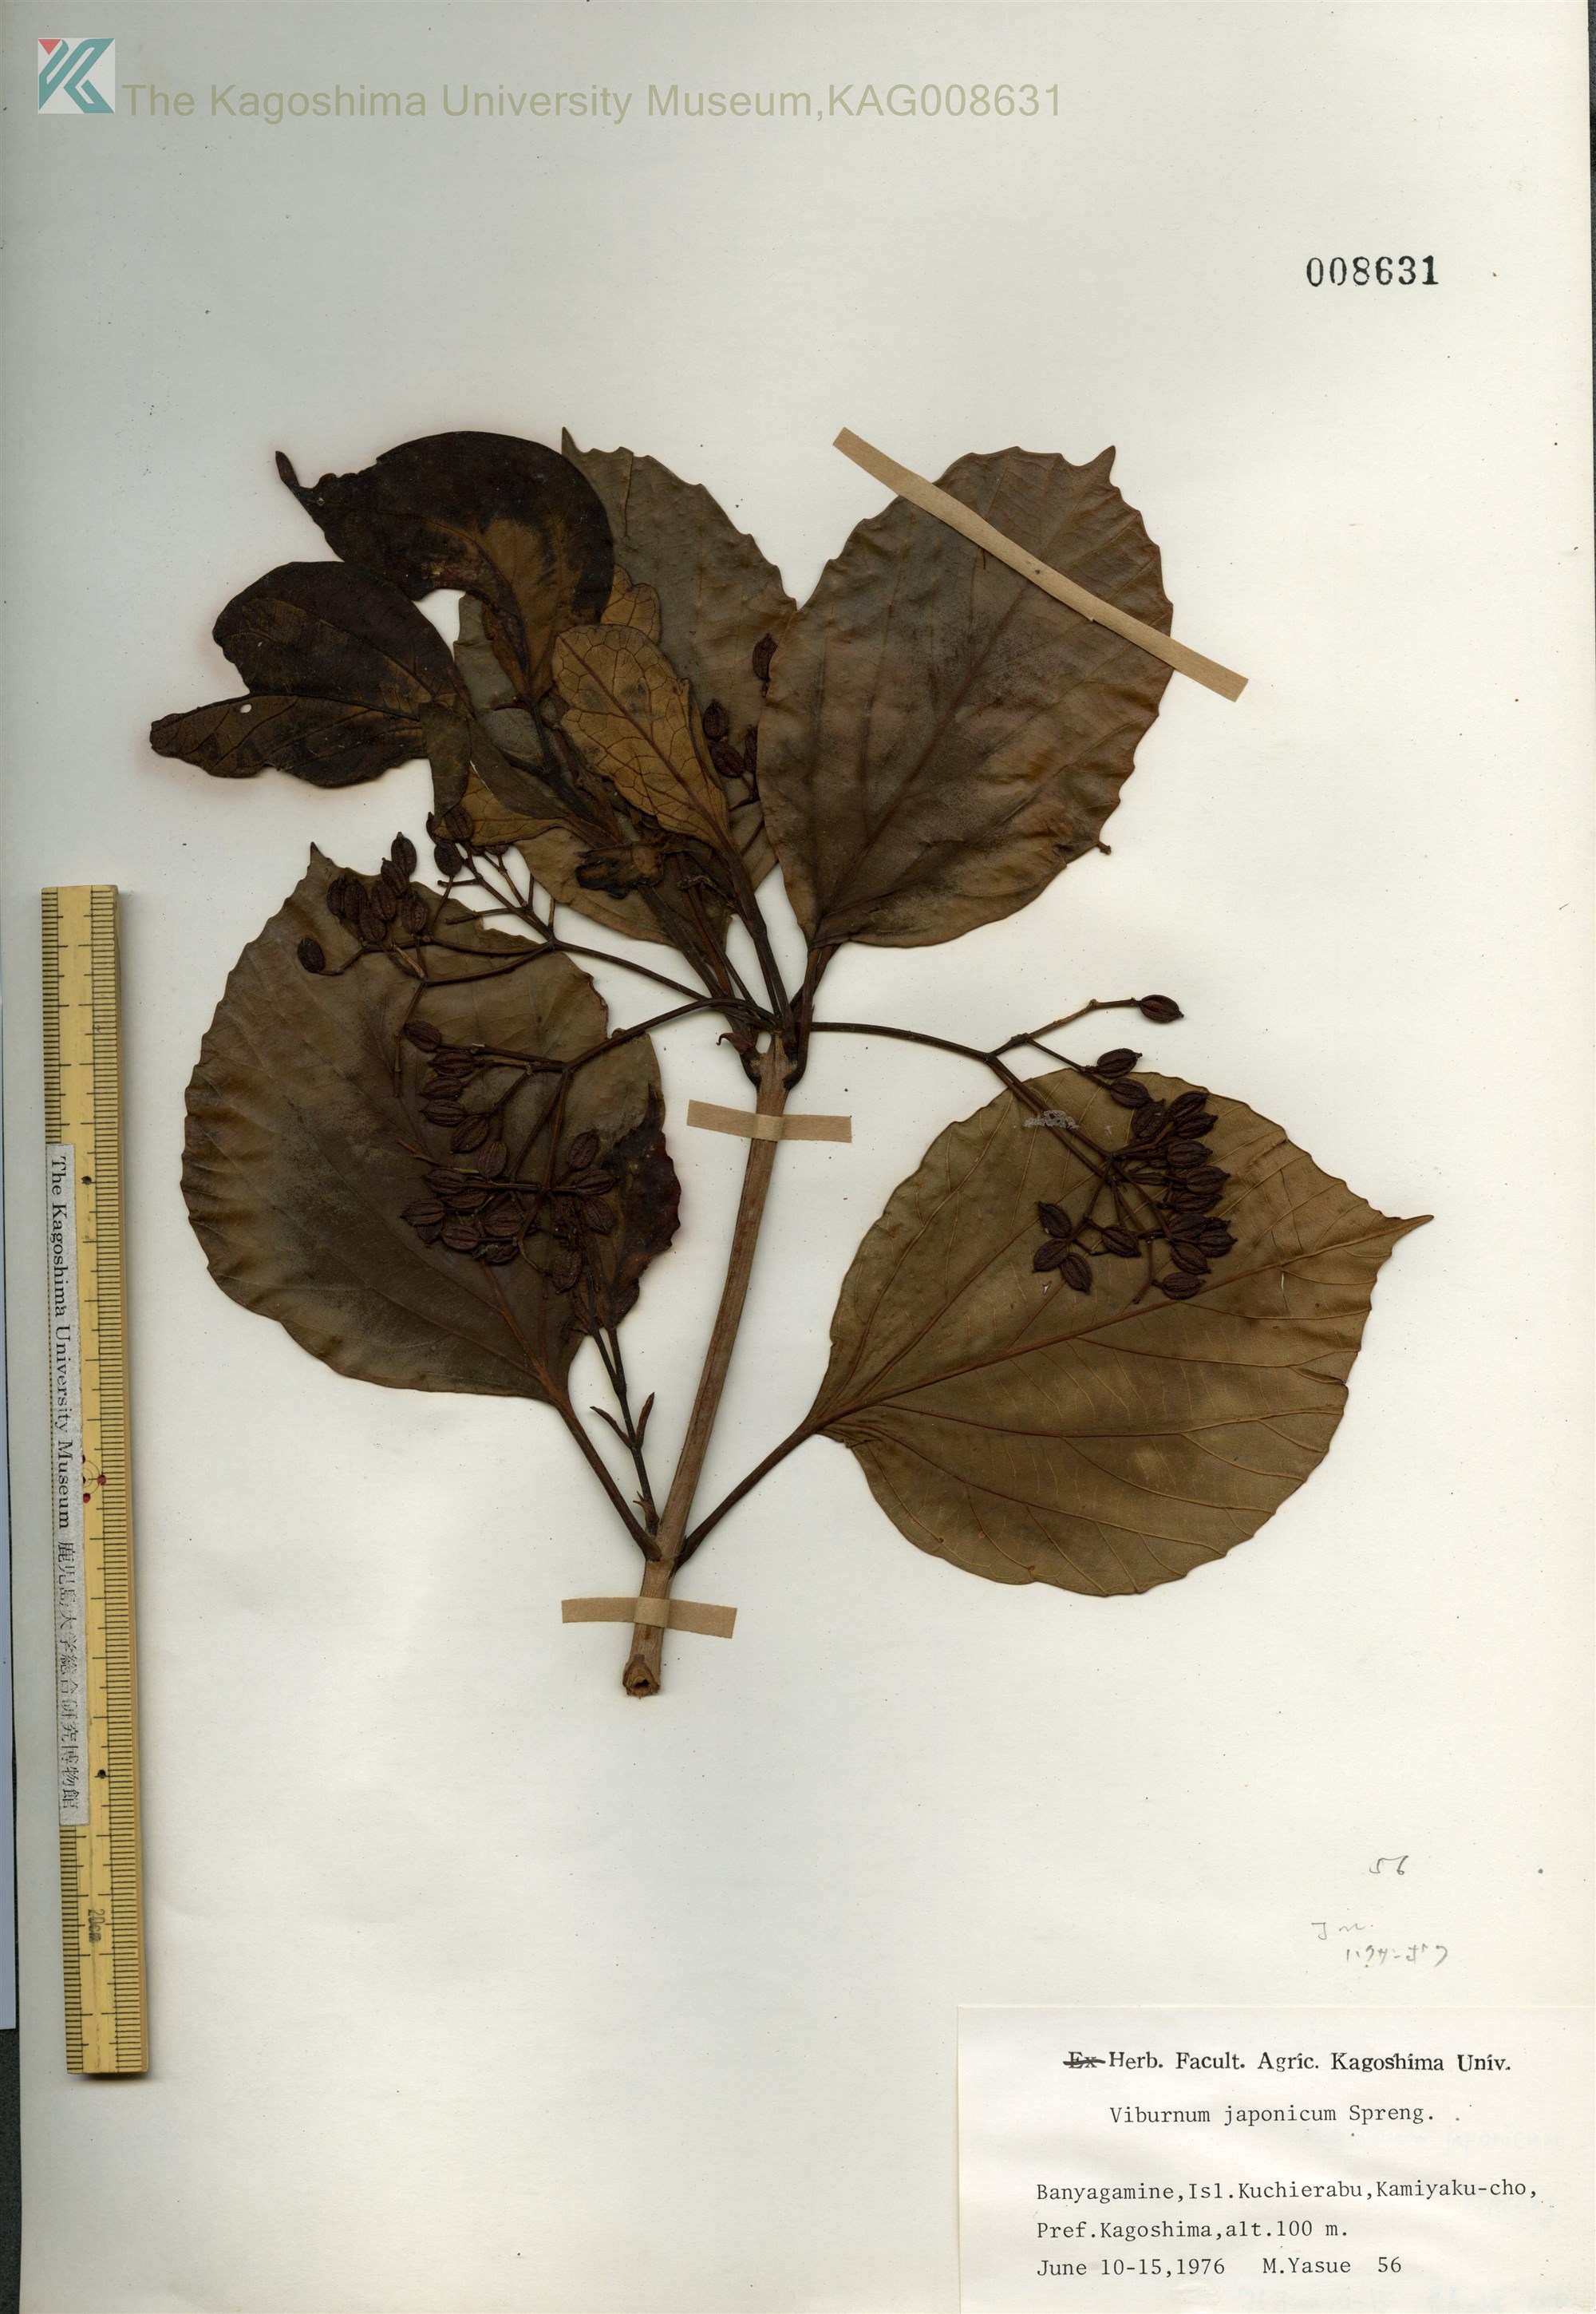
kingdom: Plantae
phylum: Tracheophyta
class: Magnoliopsida
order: Dipsacales
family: Viburnaceae
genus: Viburnum
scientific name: Viburnum japonicum
